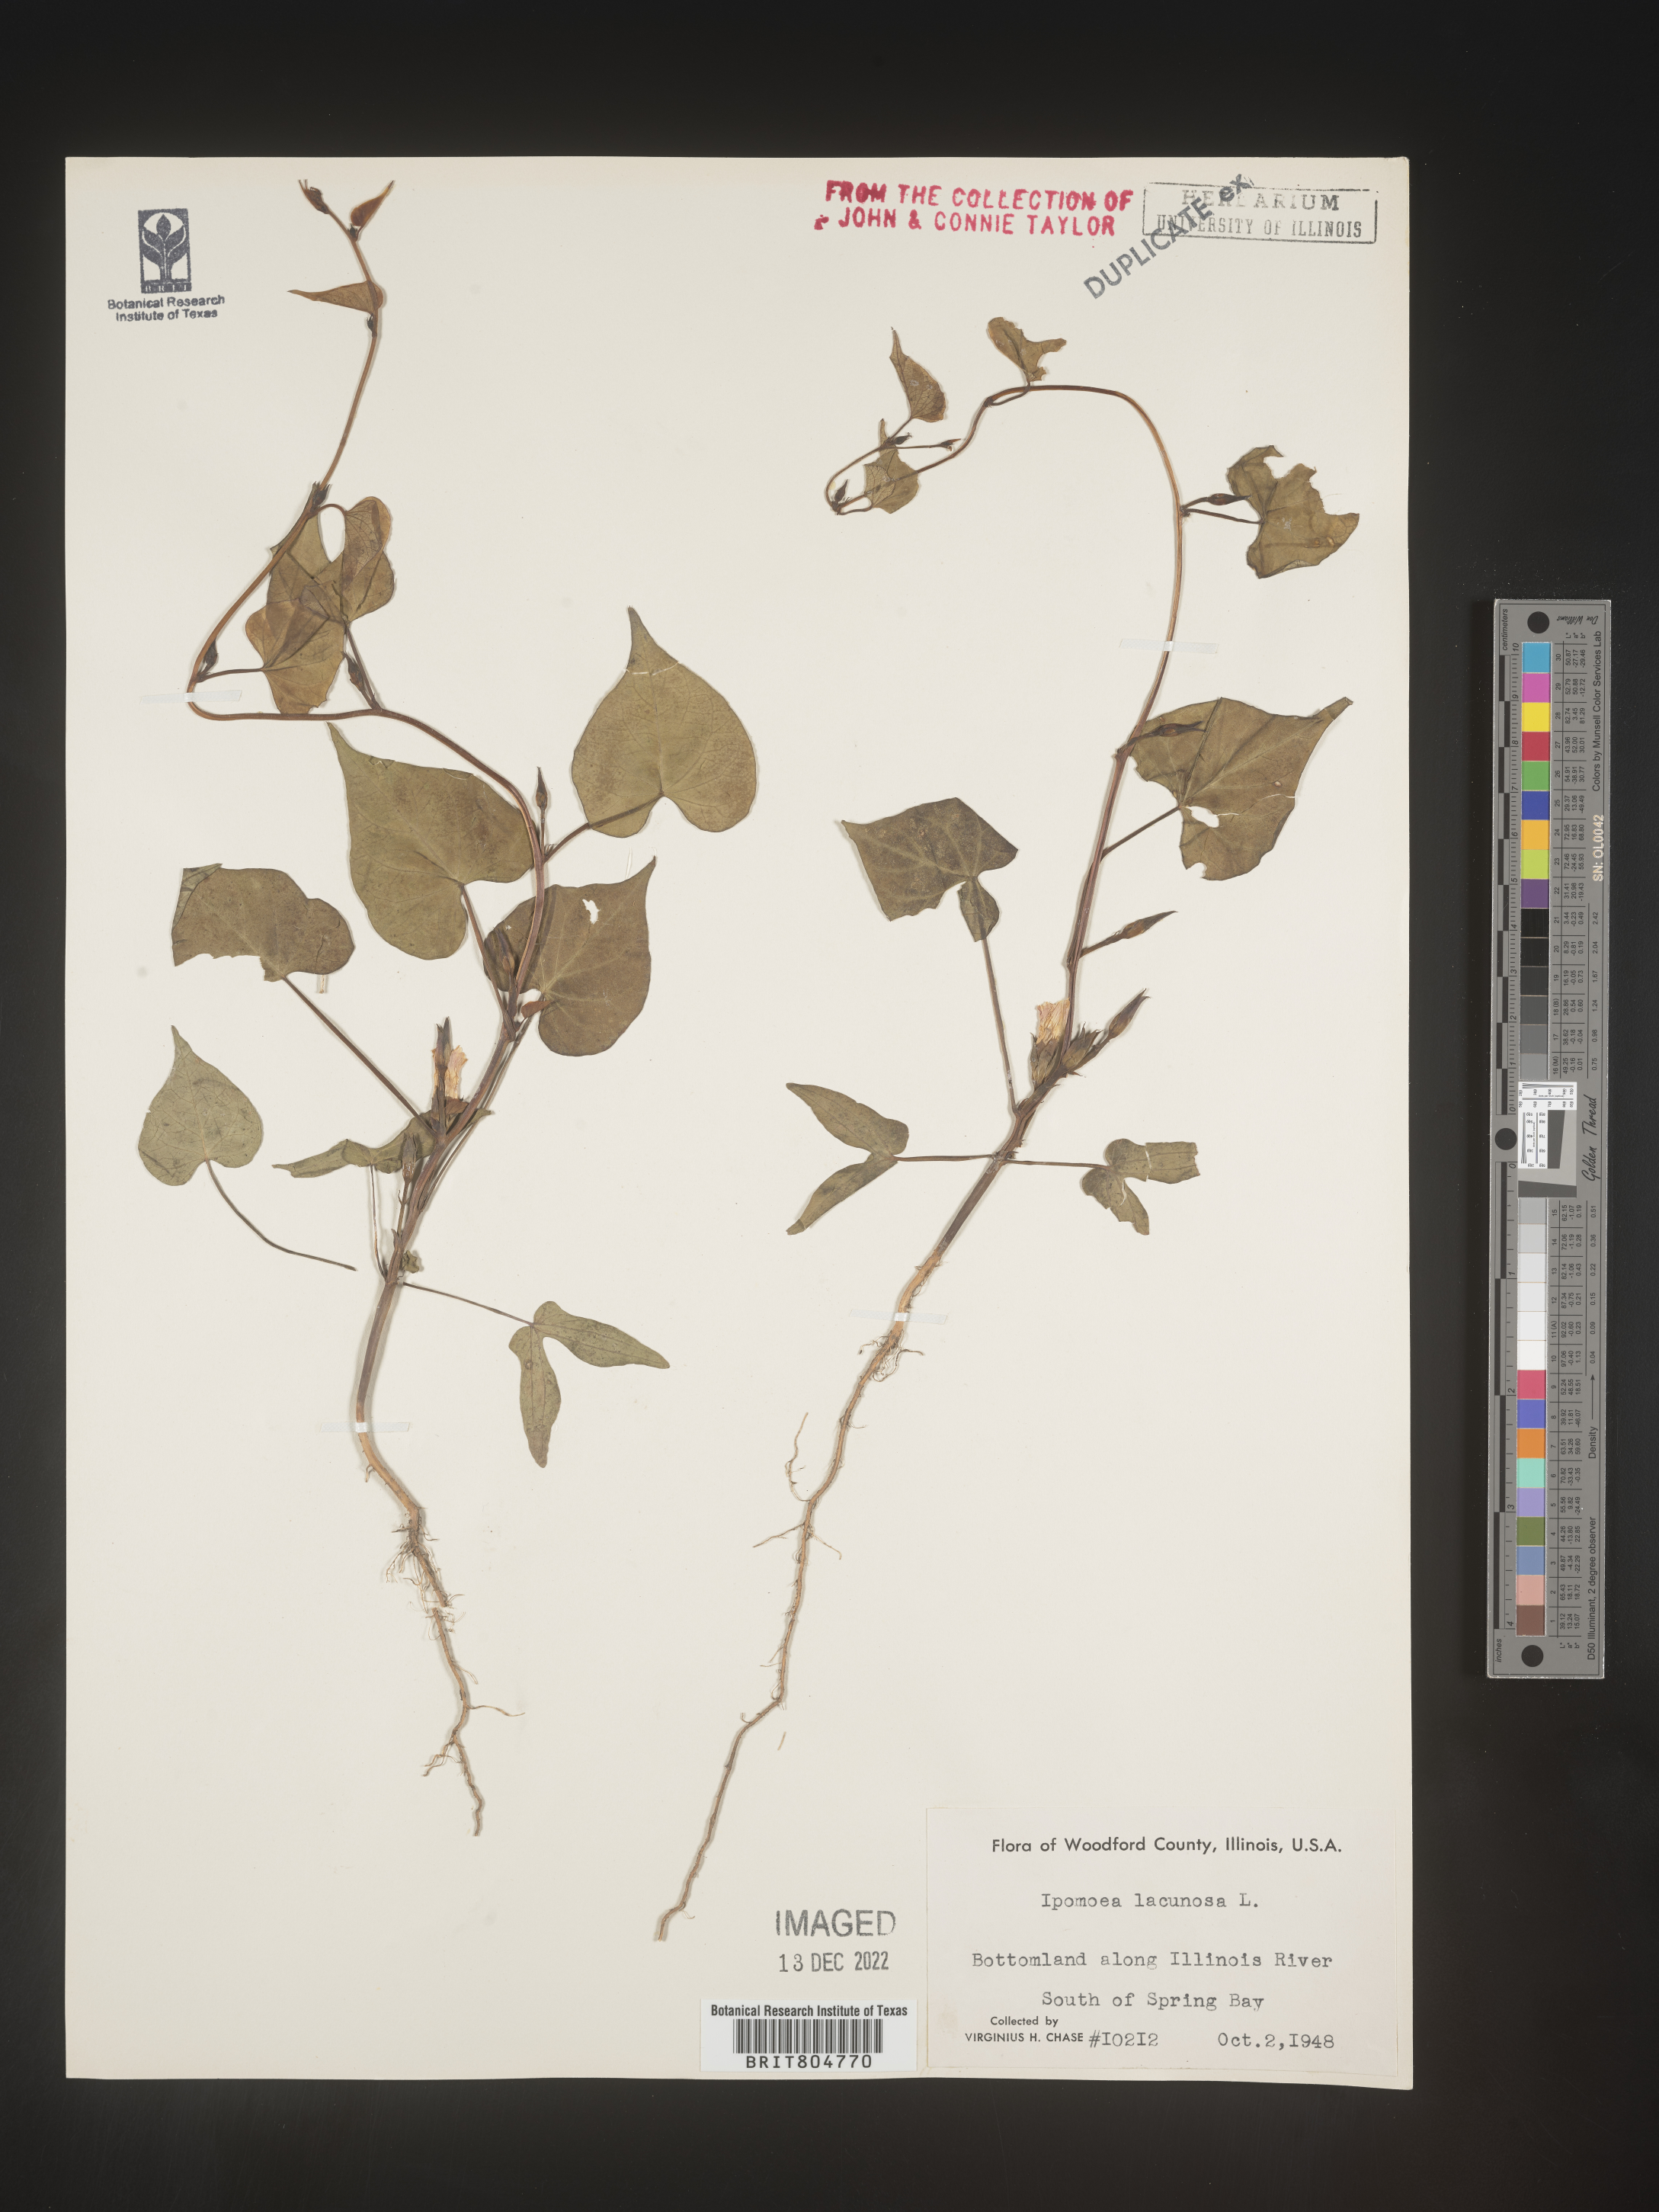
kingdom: Plantae
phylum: Tracheophyta
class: Magnoliopsida
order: Solanales
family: Convolvulaceae
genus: Ipomoea
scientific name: Ipomoea lacunosa
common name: White morning-glory
